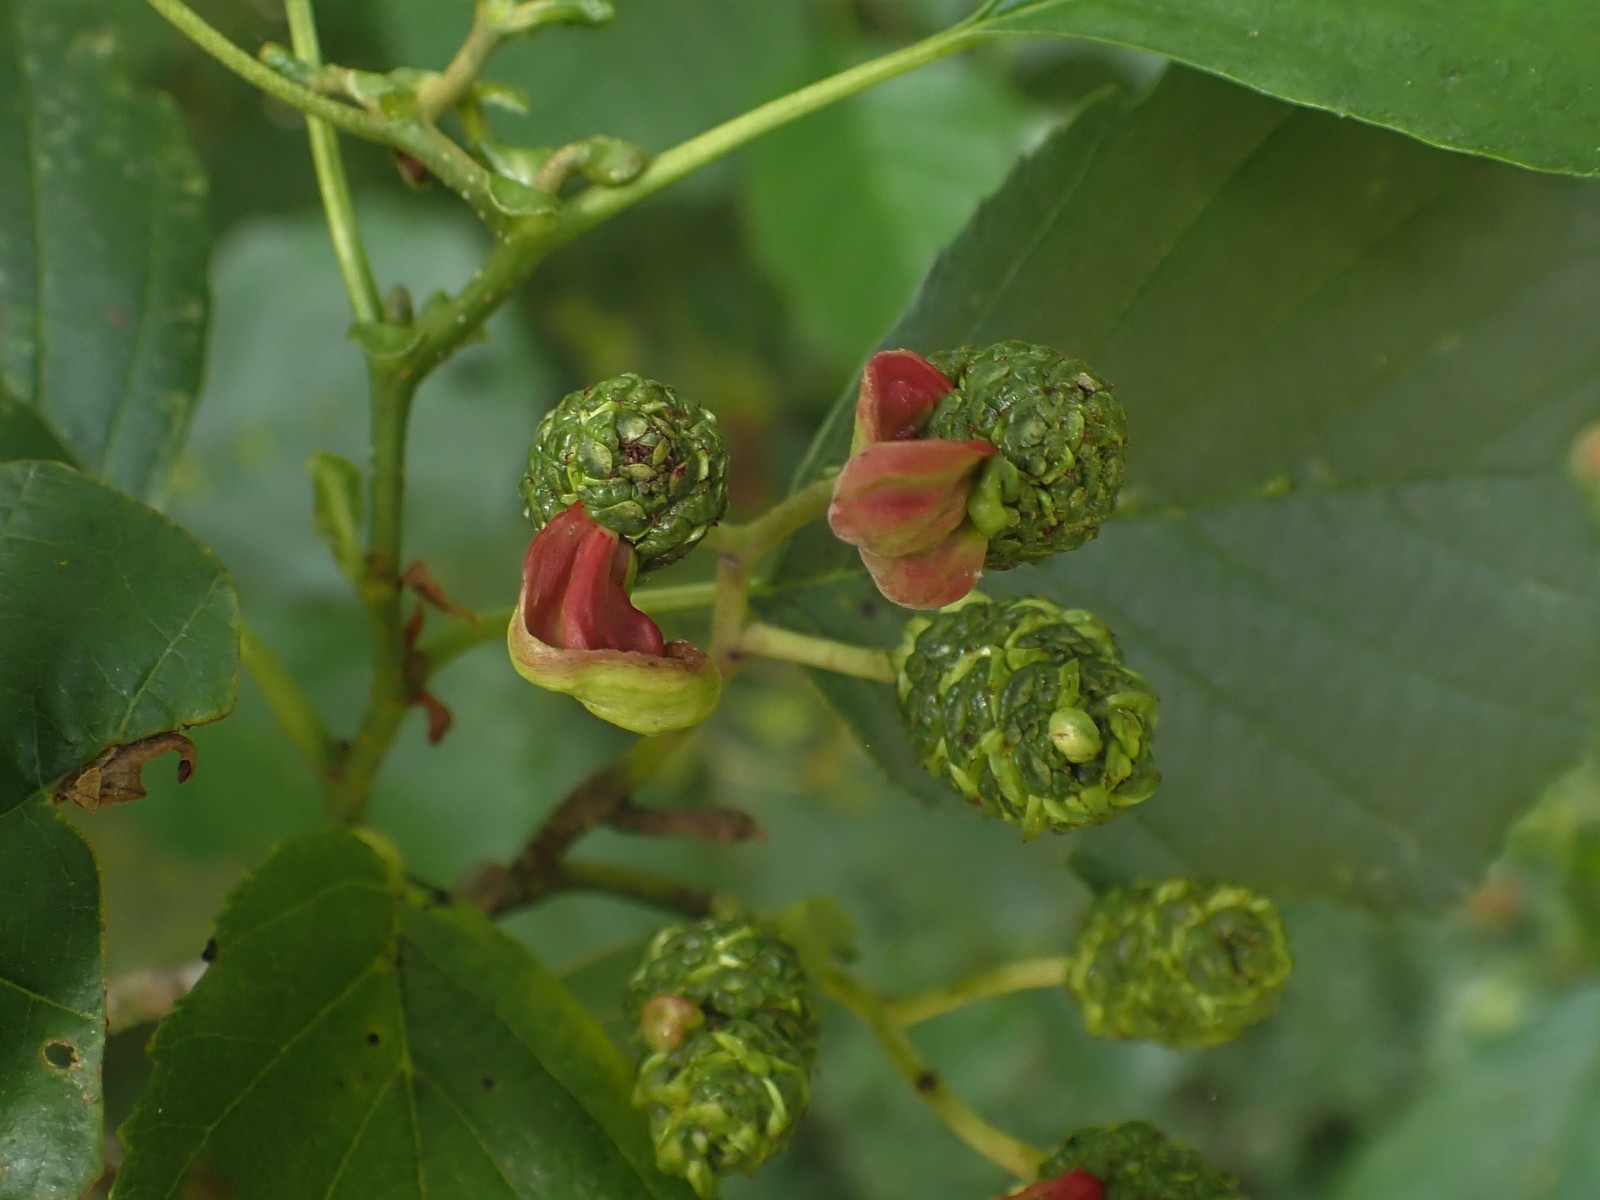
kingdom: Fungi
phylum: Ascomycota
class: Taphrinomycetes
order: Taphrinales
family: Taphrinaceae
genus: Taphrina
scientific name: Taphrina alni
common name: Alder tongue
